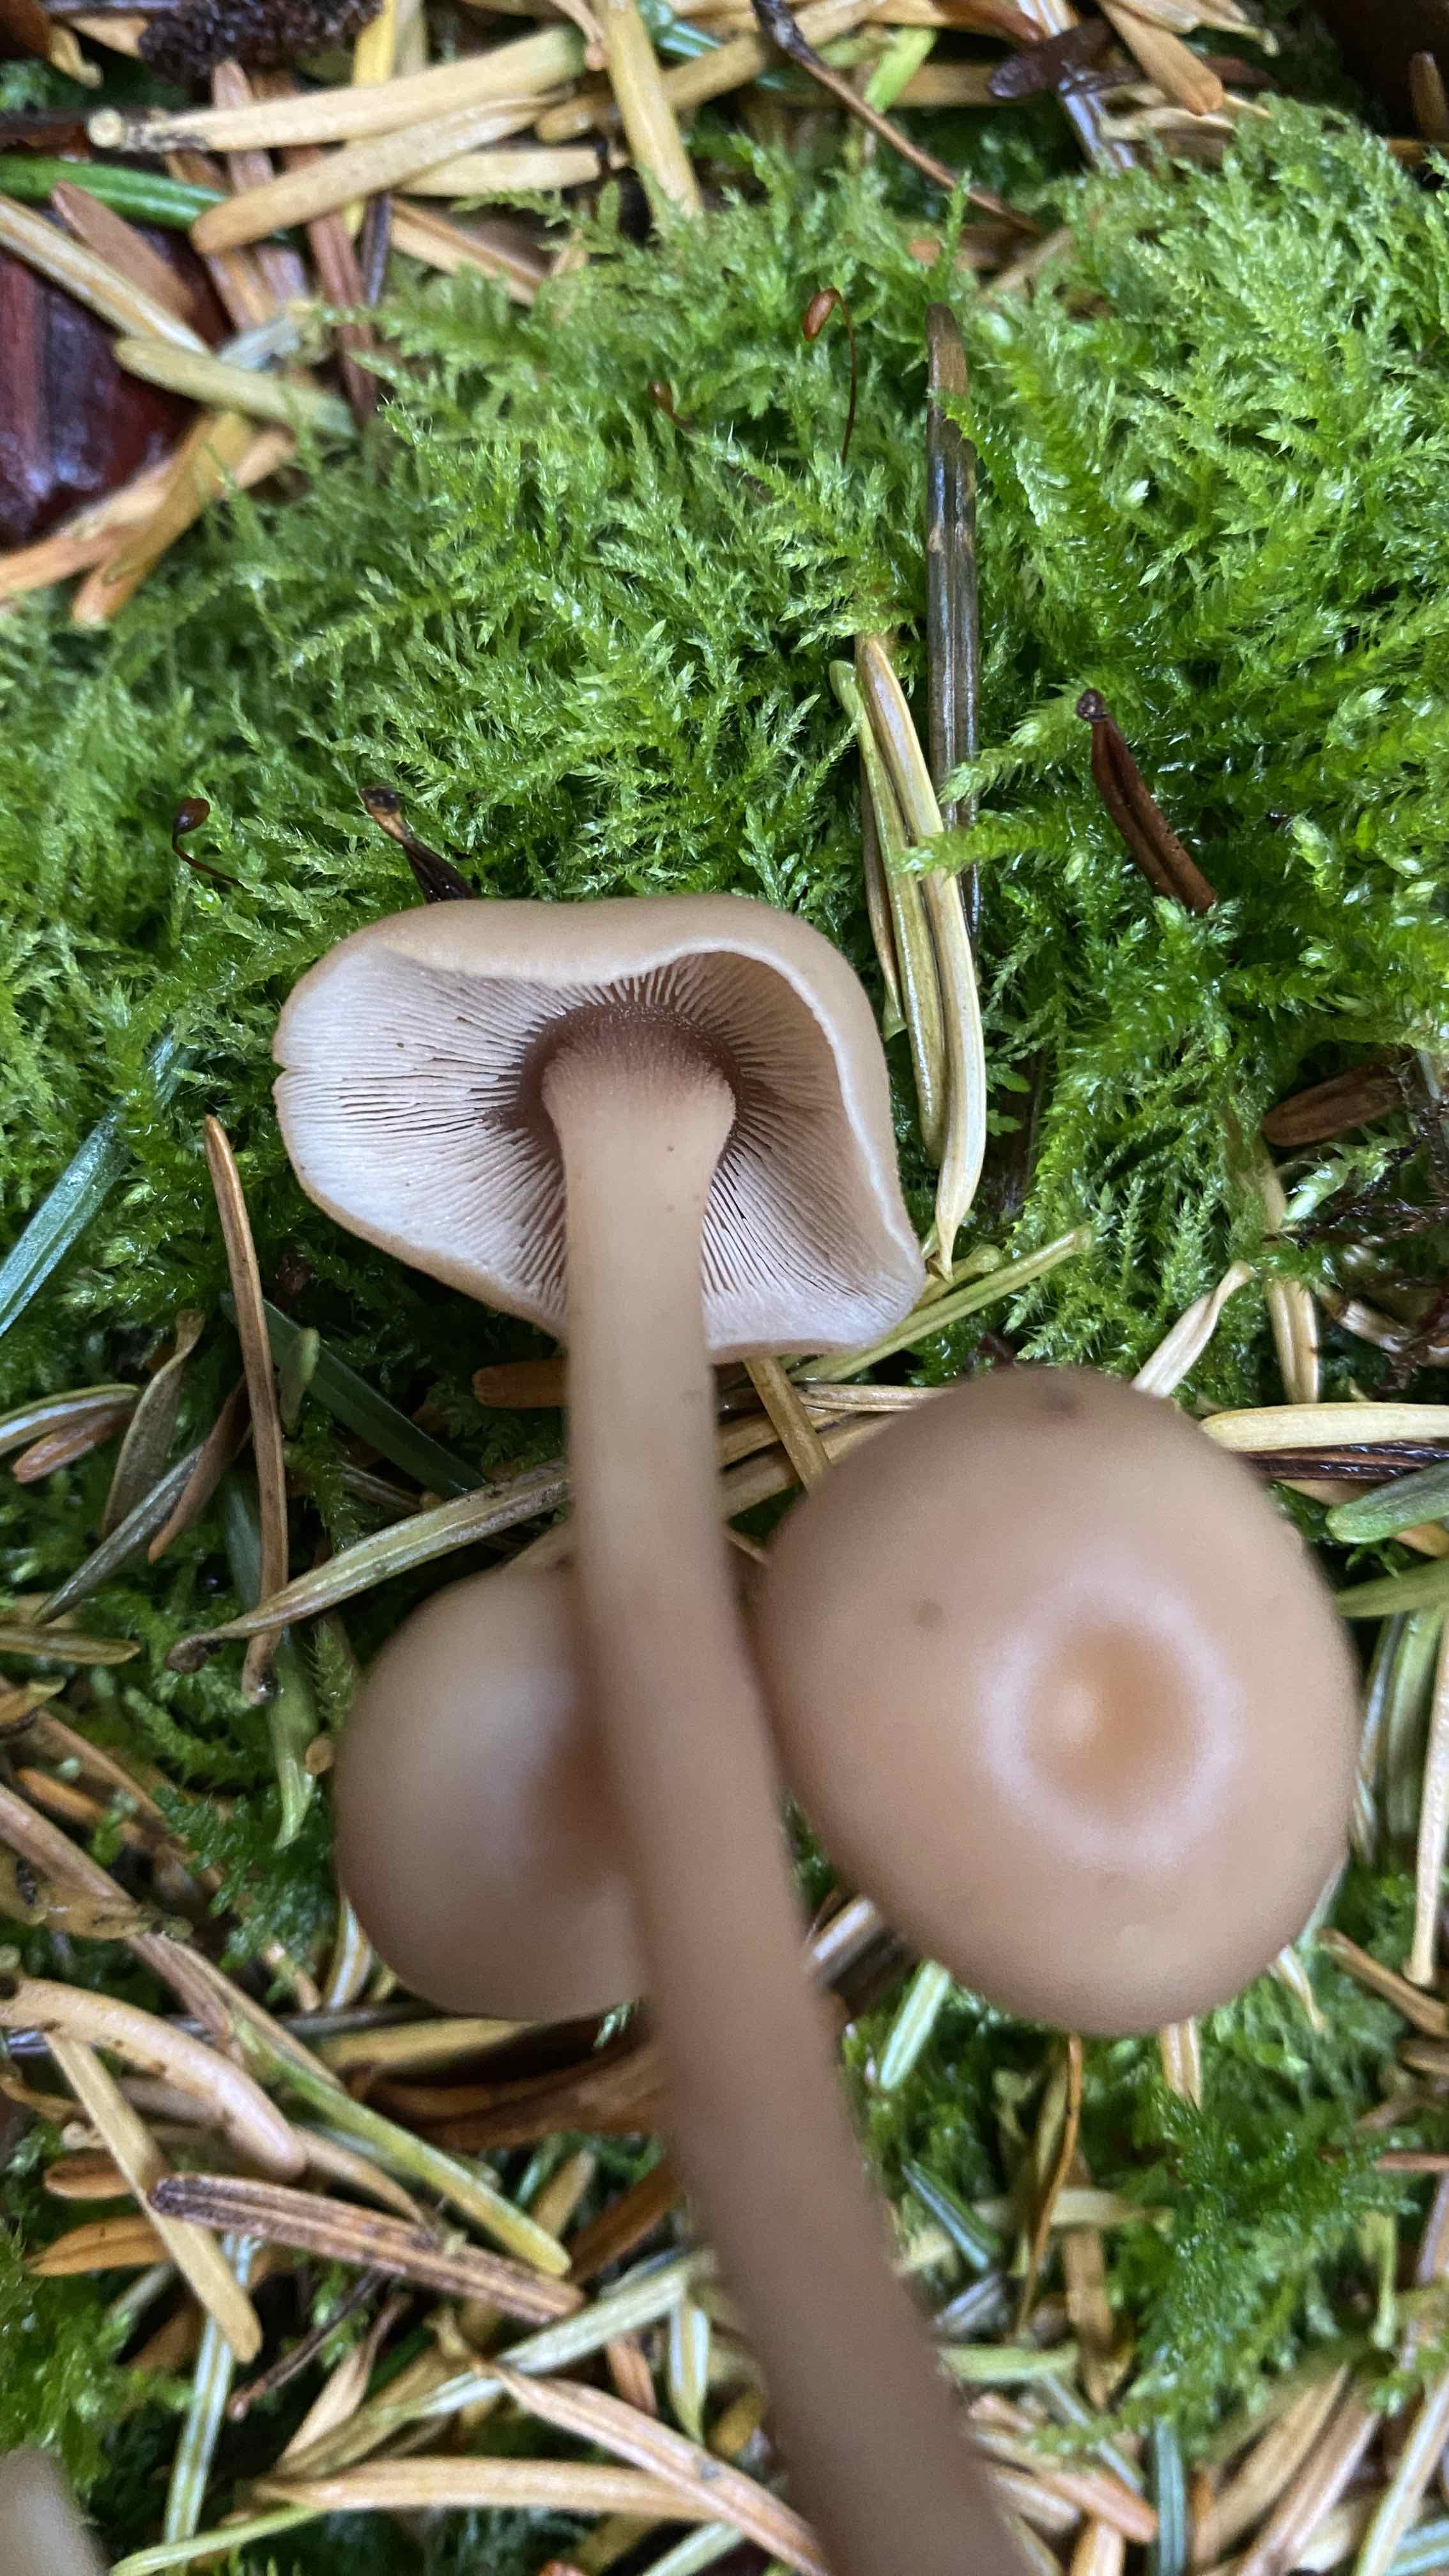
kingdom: Fungi
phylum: Basidiomycota
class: Agaricomycetes
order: Agaricales
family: Omphalotaceae
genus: Connopus
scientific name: Connopus acervatus
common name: tue-fladhat
